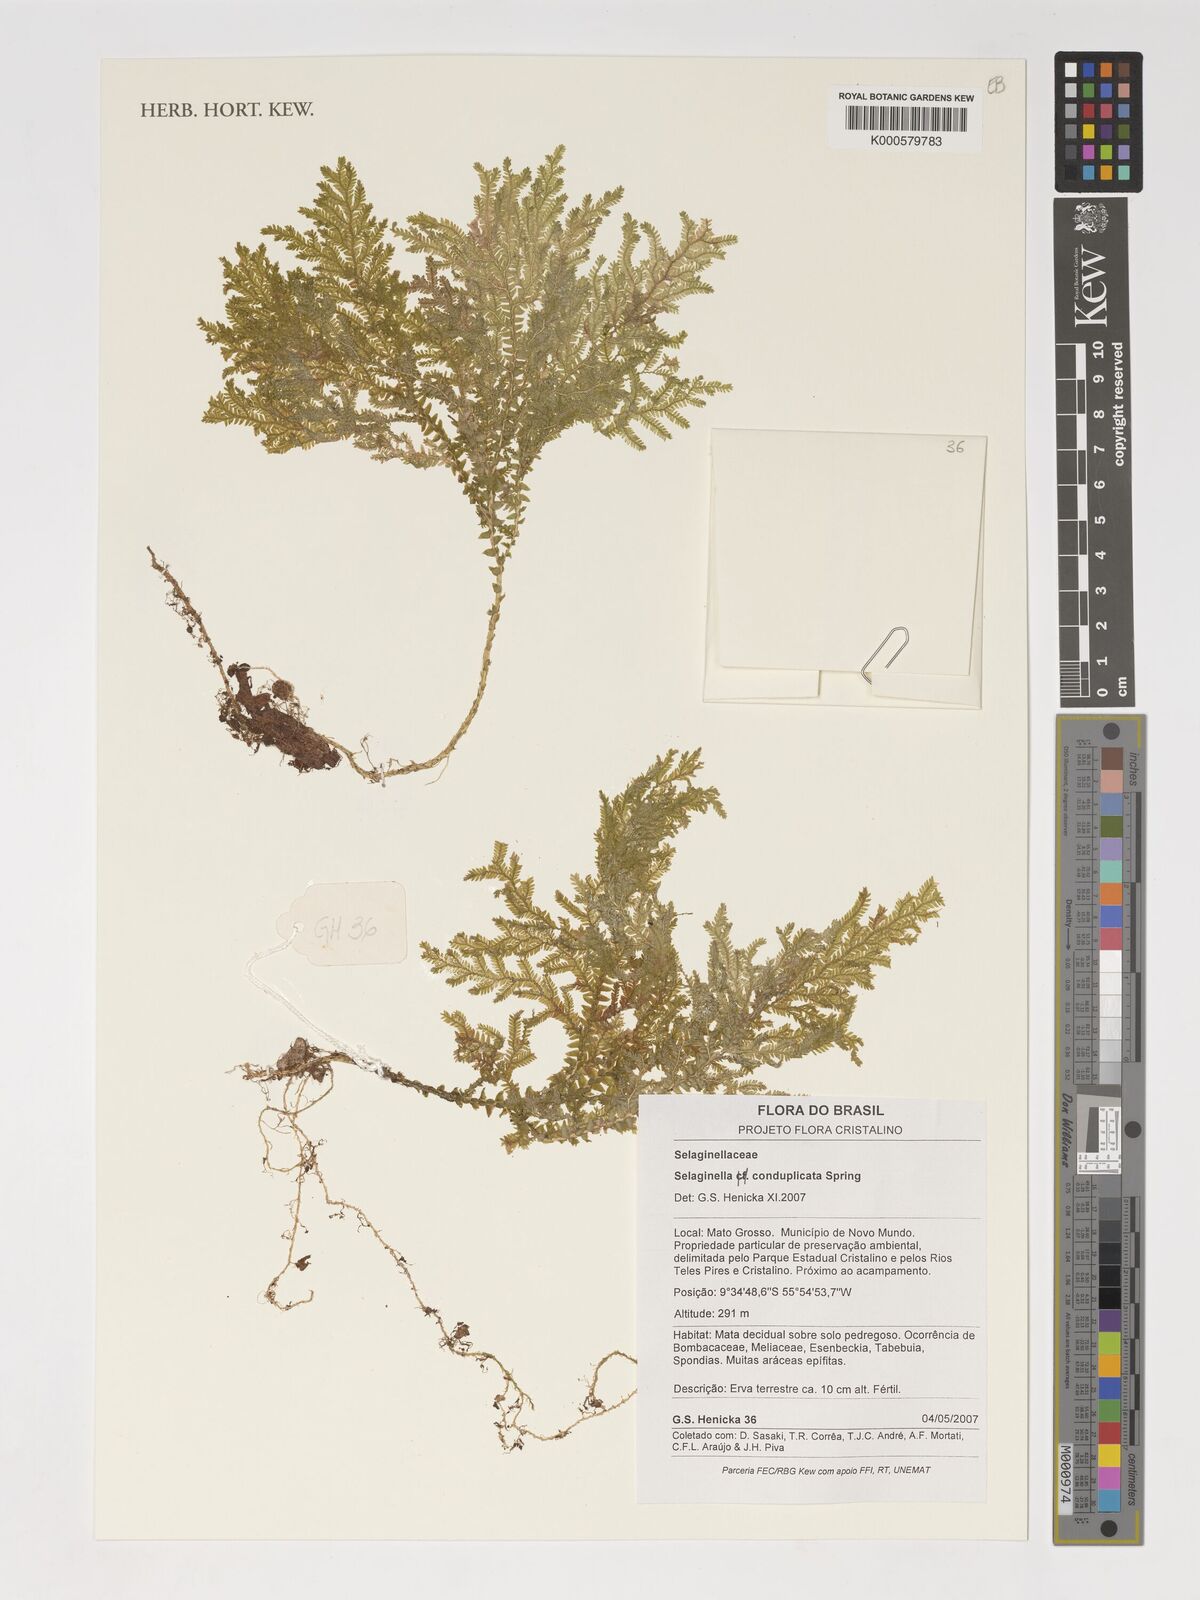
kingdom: Plantae
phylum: Tracheophyta
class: Lycopodiopsida
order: Selaginellales
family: Selaginellaceae
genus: Selaginella
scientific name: Selaginella conduplicata
